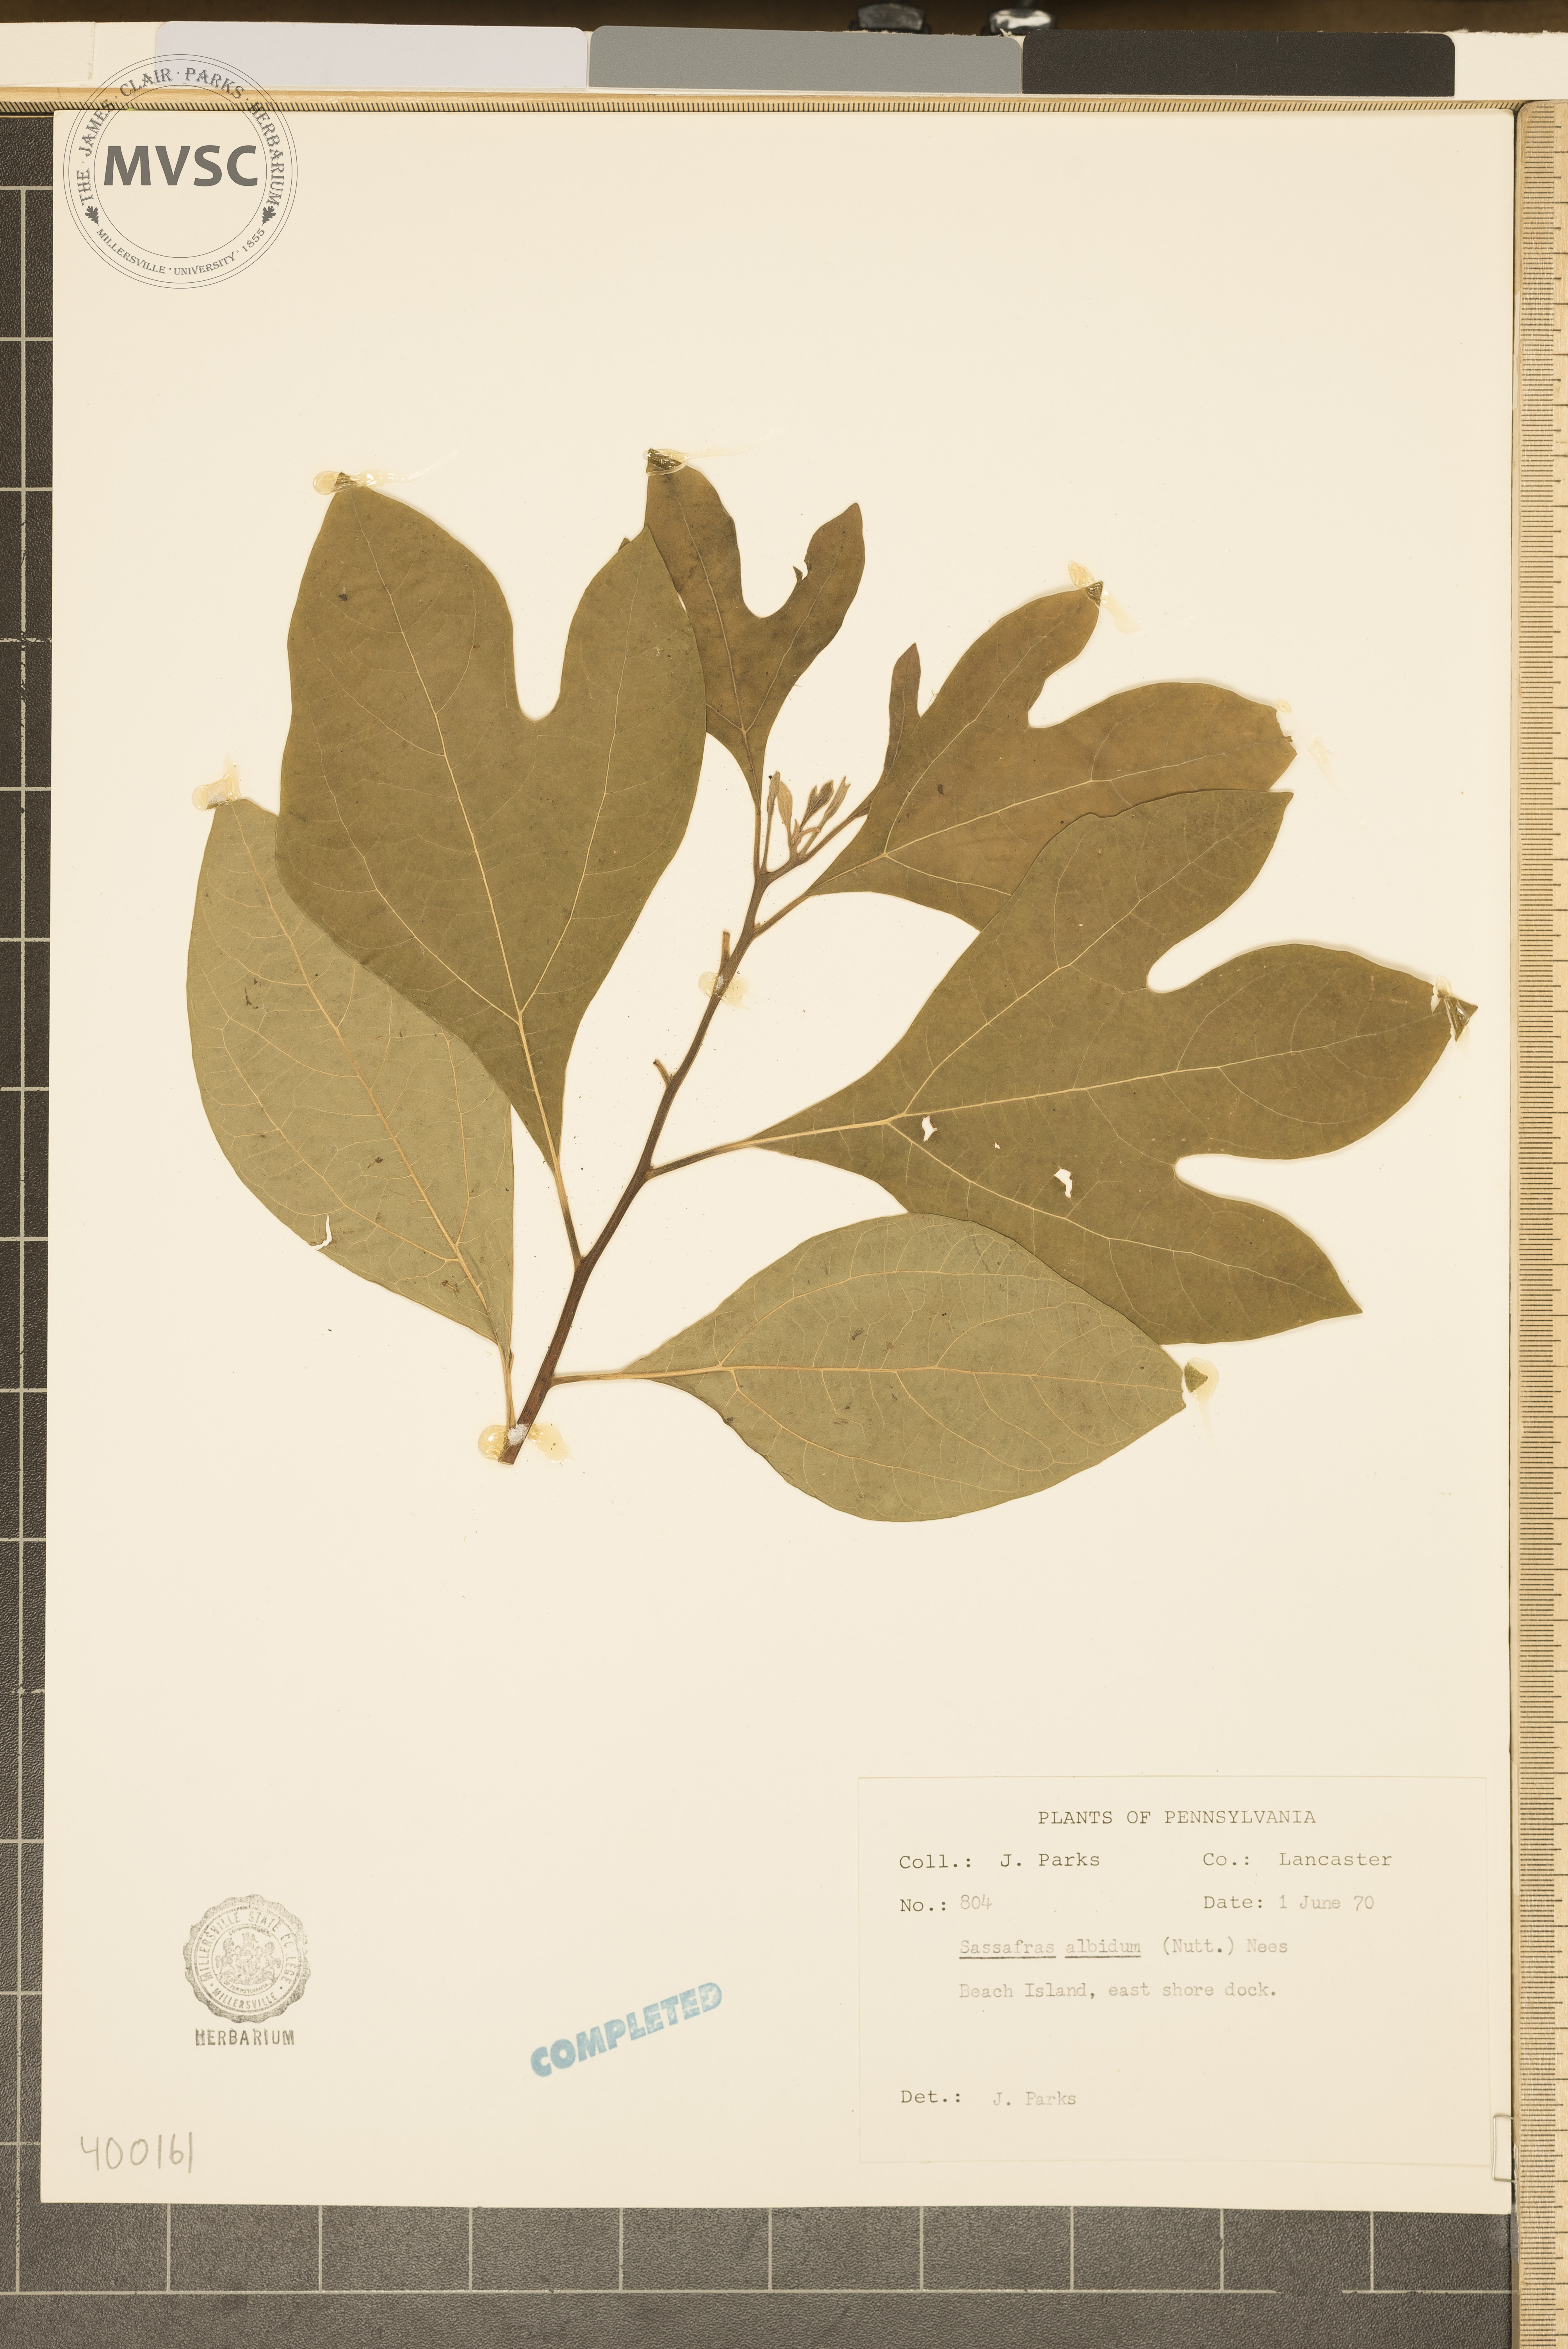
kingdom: Plantae
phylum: Tracheophyta
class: Magnoliopsida
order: Laurales
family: Lauraceae
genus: Sassafras
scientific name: Sassafras albidum
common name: sassafras
